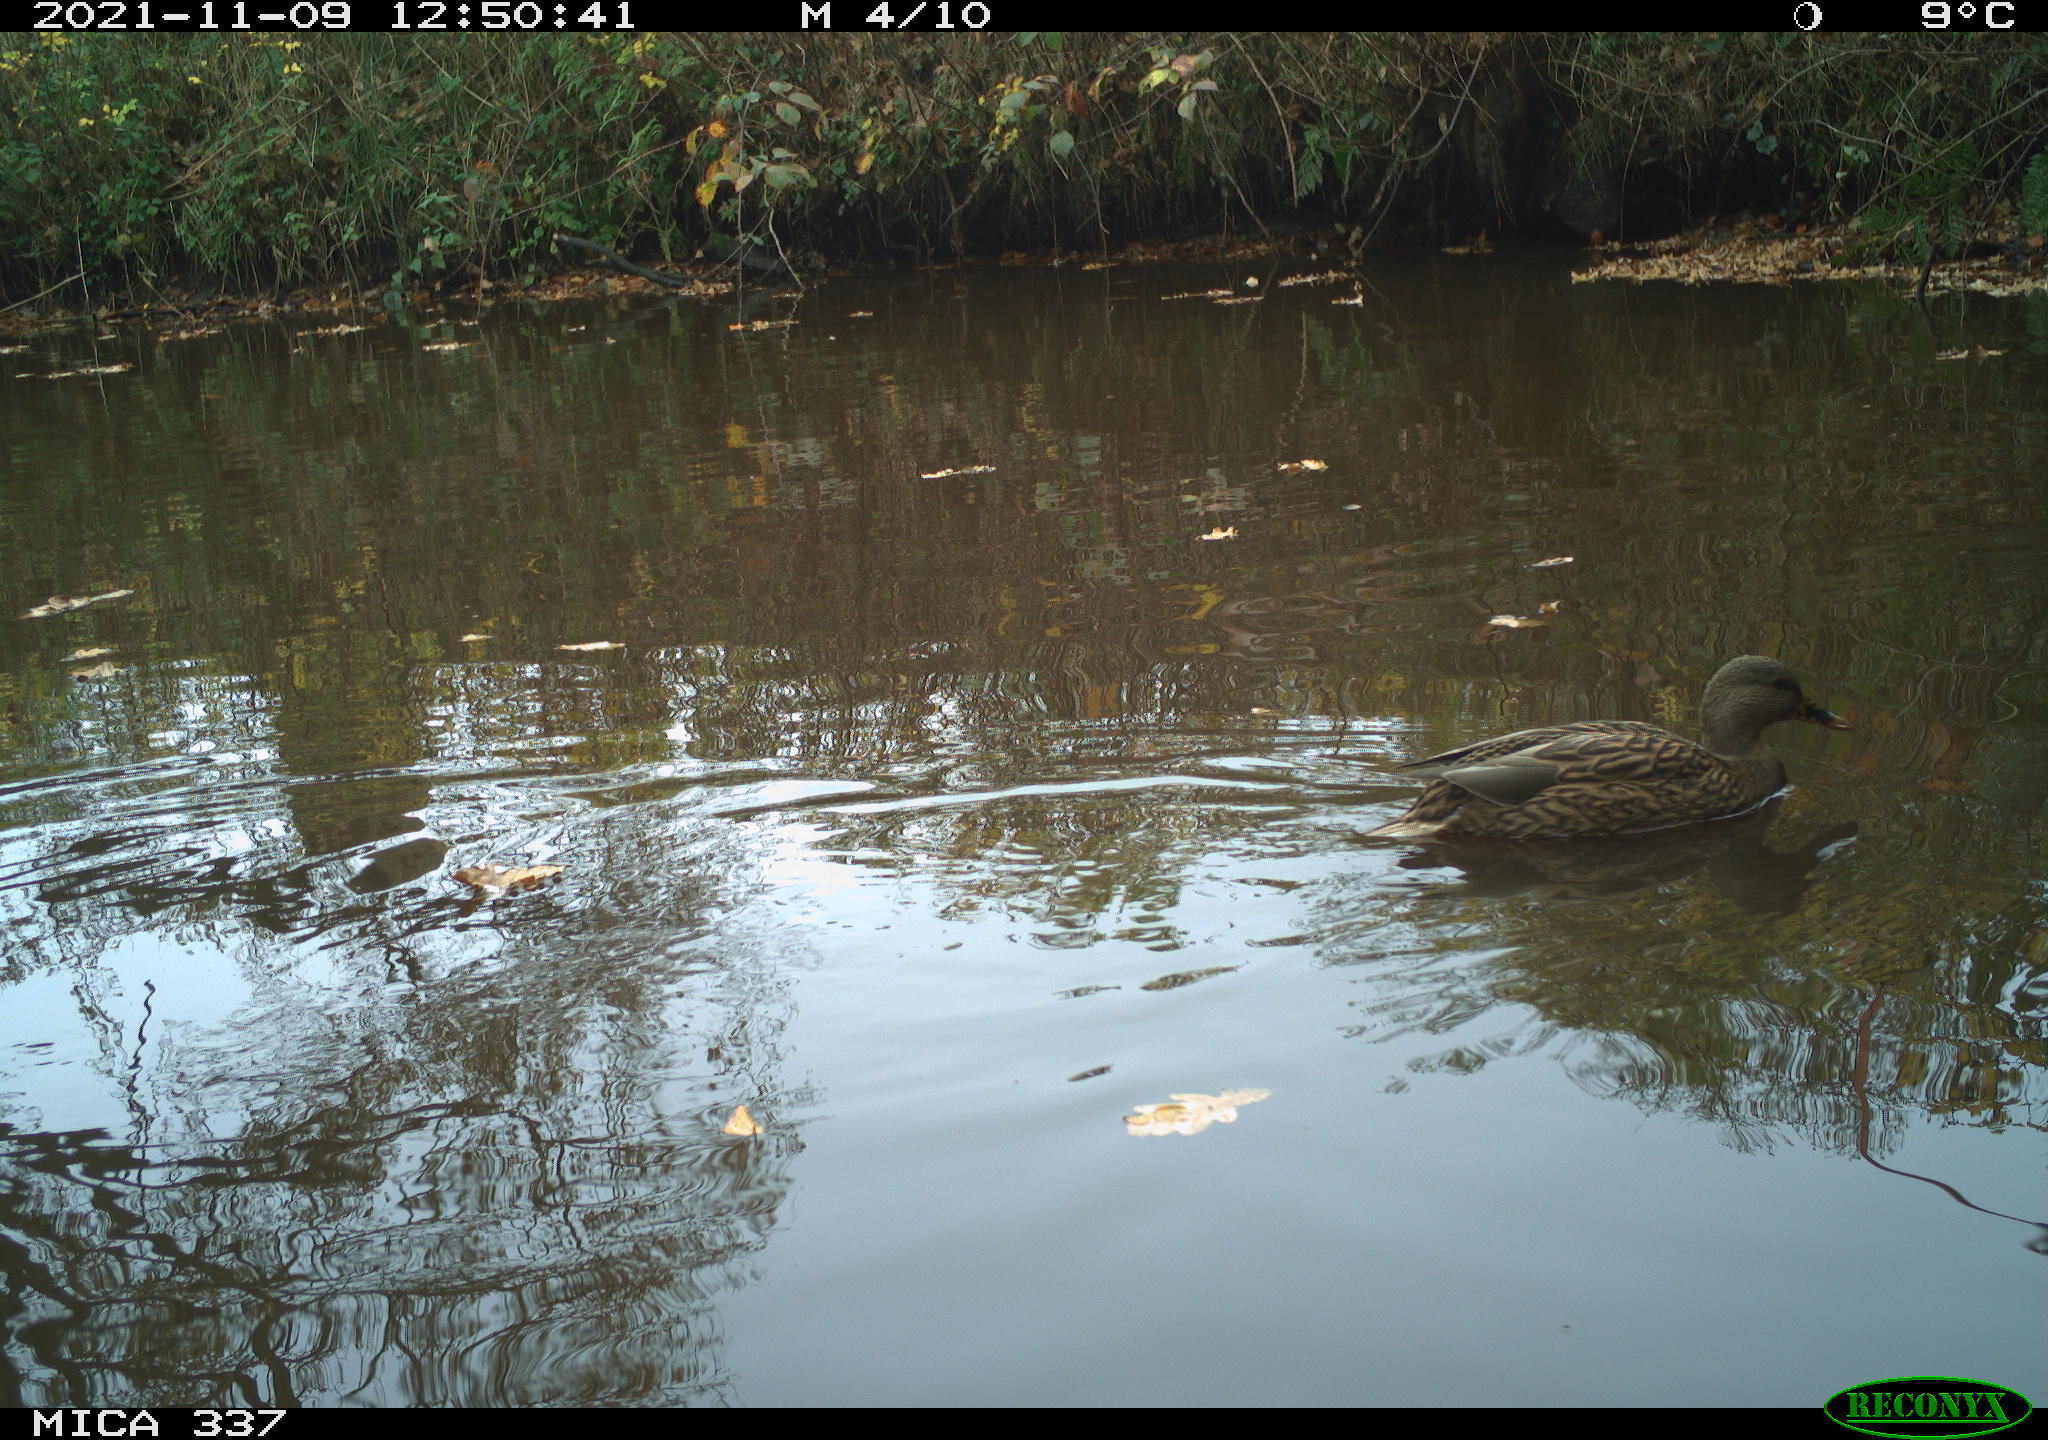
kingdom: Animalia
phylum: Chordata
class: Aves
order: Anseriformes
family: Anatidae
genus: Anas
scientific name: Anas platyrhynchos
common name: Mallard
